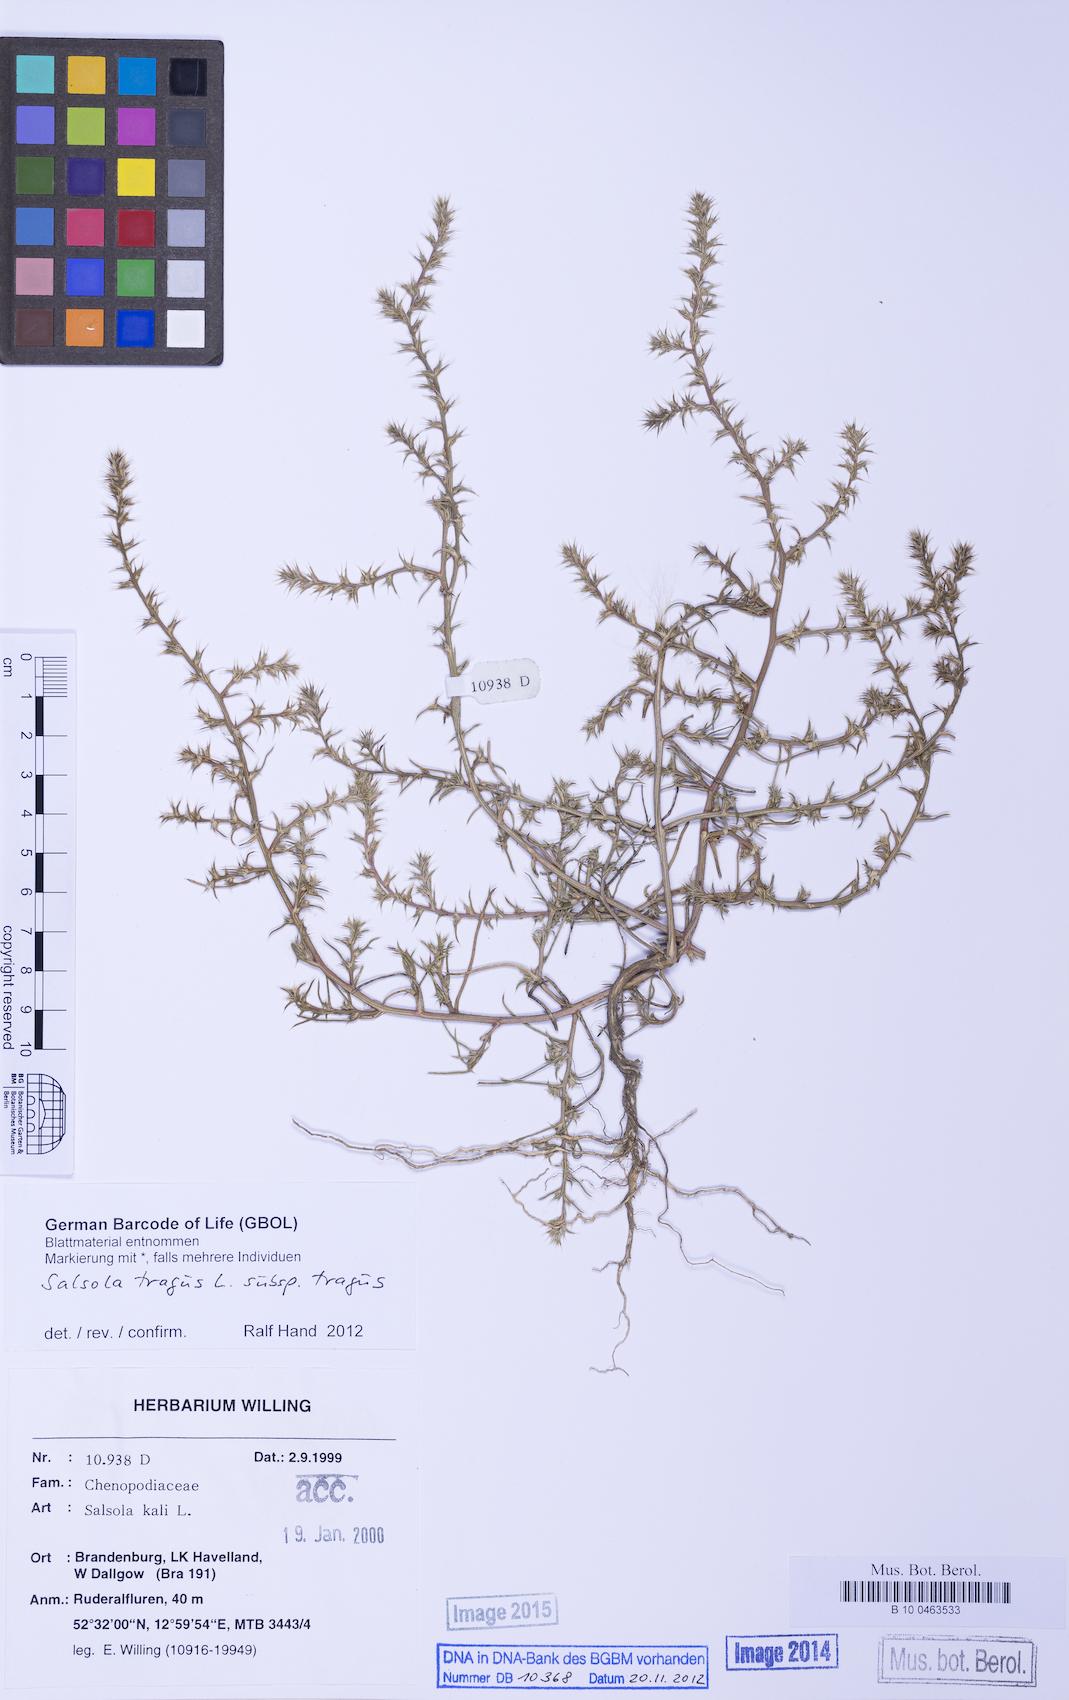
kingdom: Plantae
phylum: Tracheophyta
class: Magnoliopsida
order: Caryophyllales
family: Amaranthaceae
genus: Salsola
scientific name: Salsola tragus
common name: Prickly russian thistle
